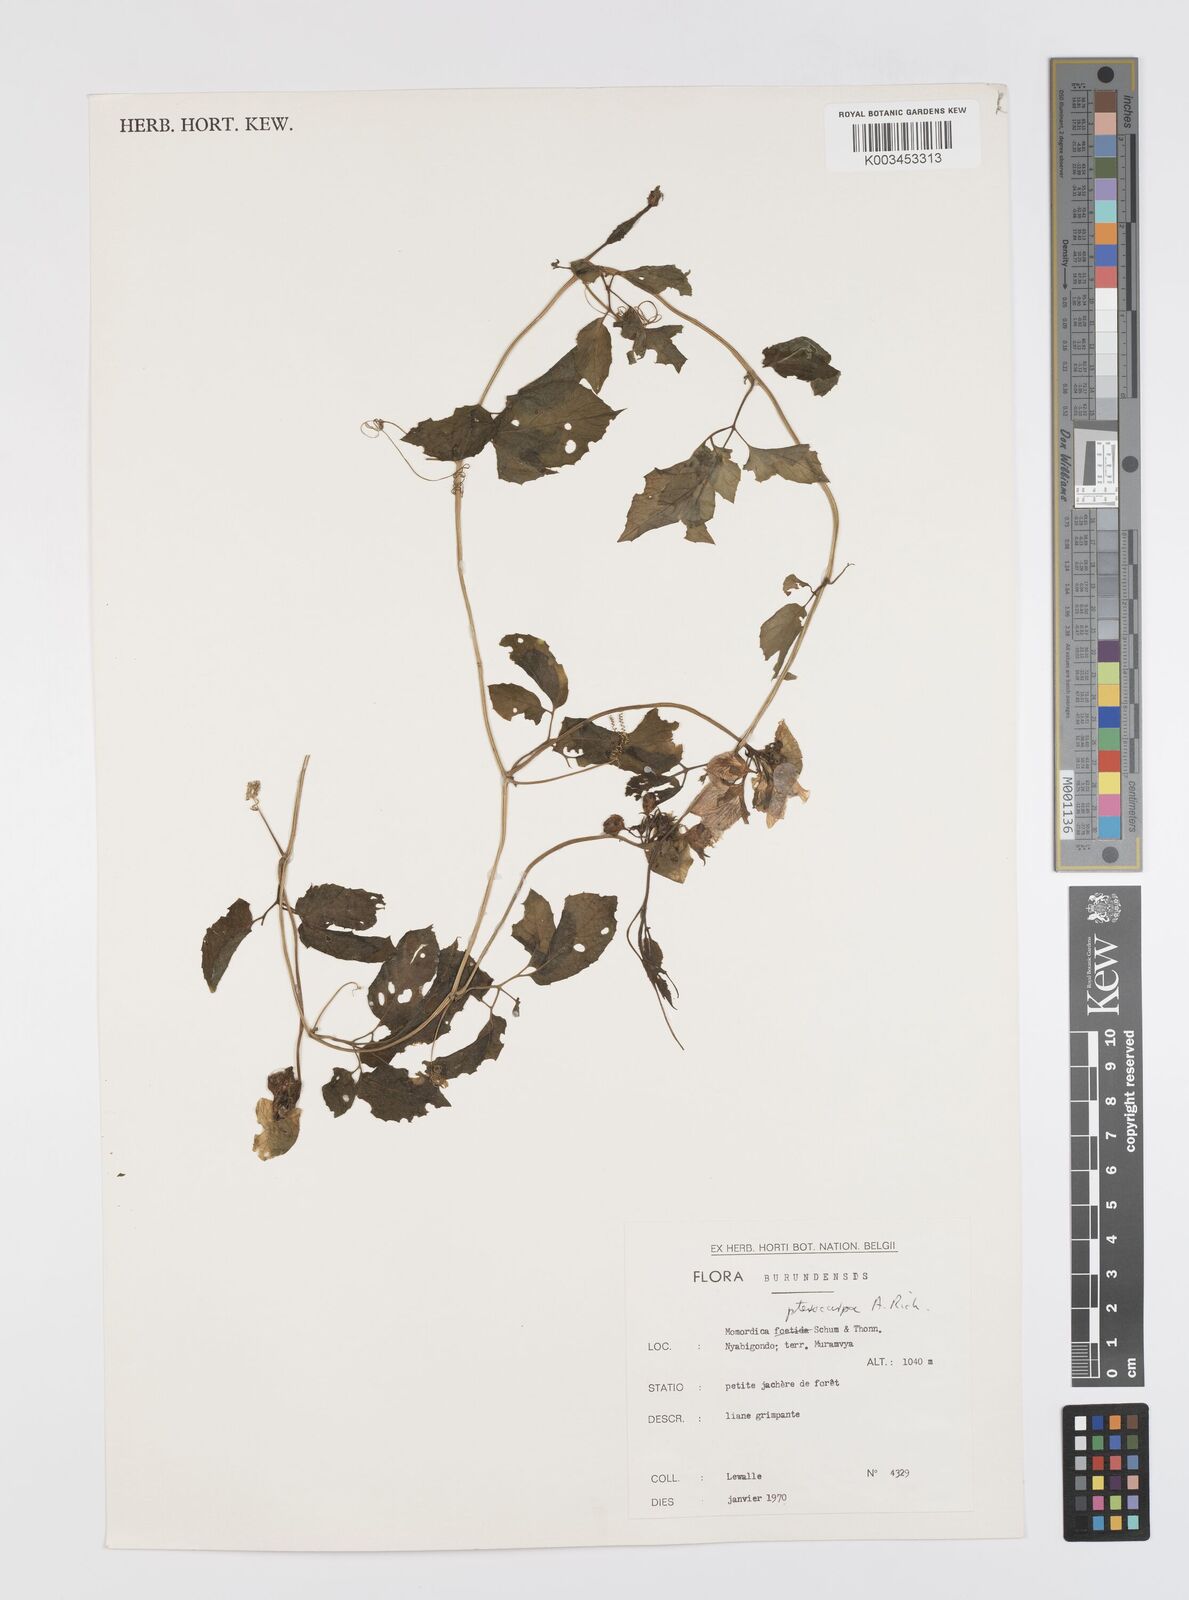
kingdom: Plantae
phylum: Tracheophyta
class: Magnoliopsida
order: Cucurbitales
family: Cucurbitaceae
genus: Momordica
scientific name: Momordica pterocarpa
